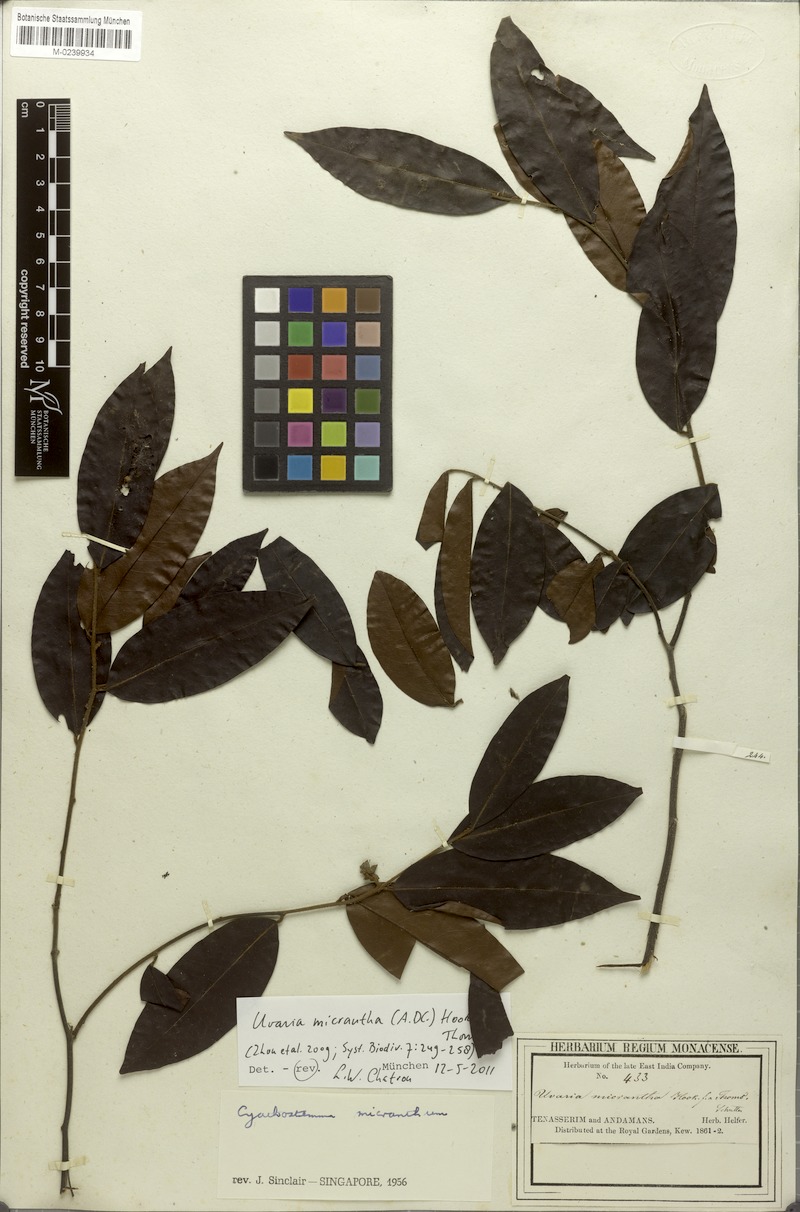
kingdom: Plantae
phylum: Tracheophyta
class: Magnoliopsida
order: Magnoliales
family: Annonaceae
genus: Uvaria
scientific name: Uvaria micrantha
